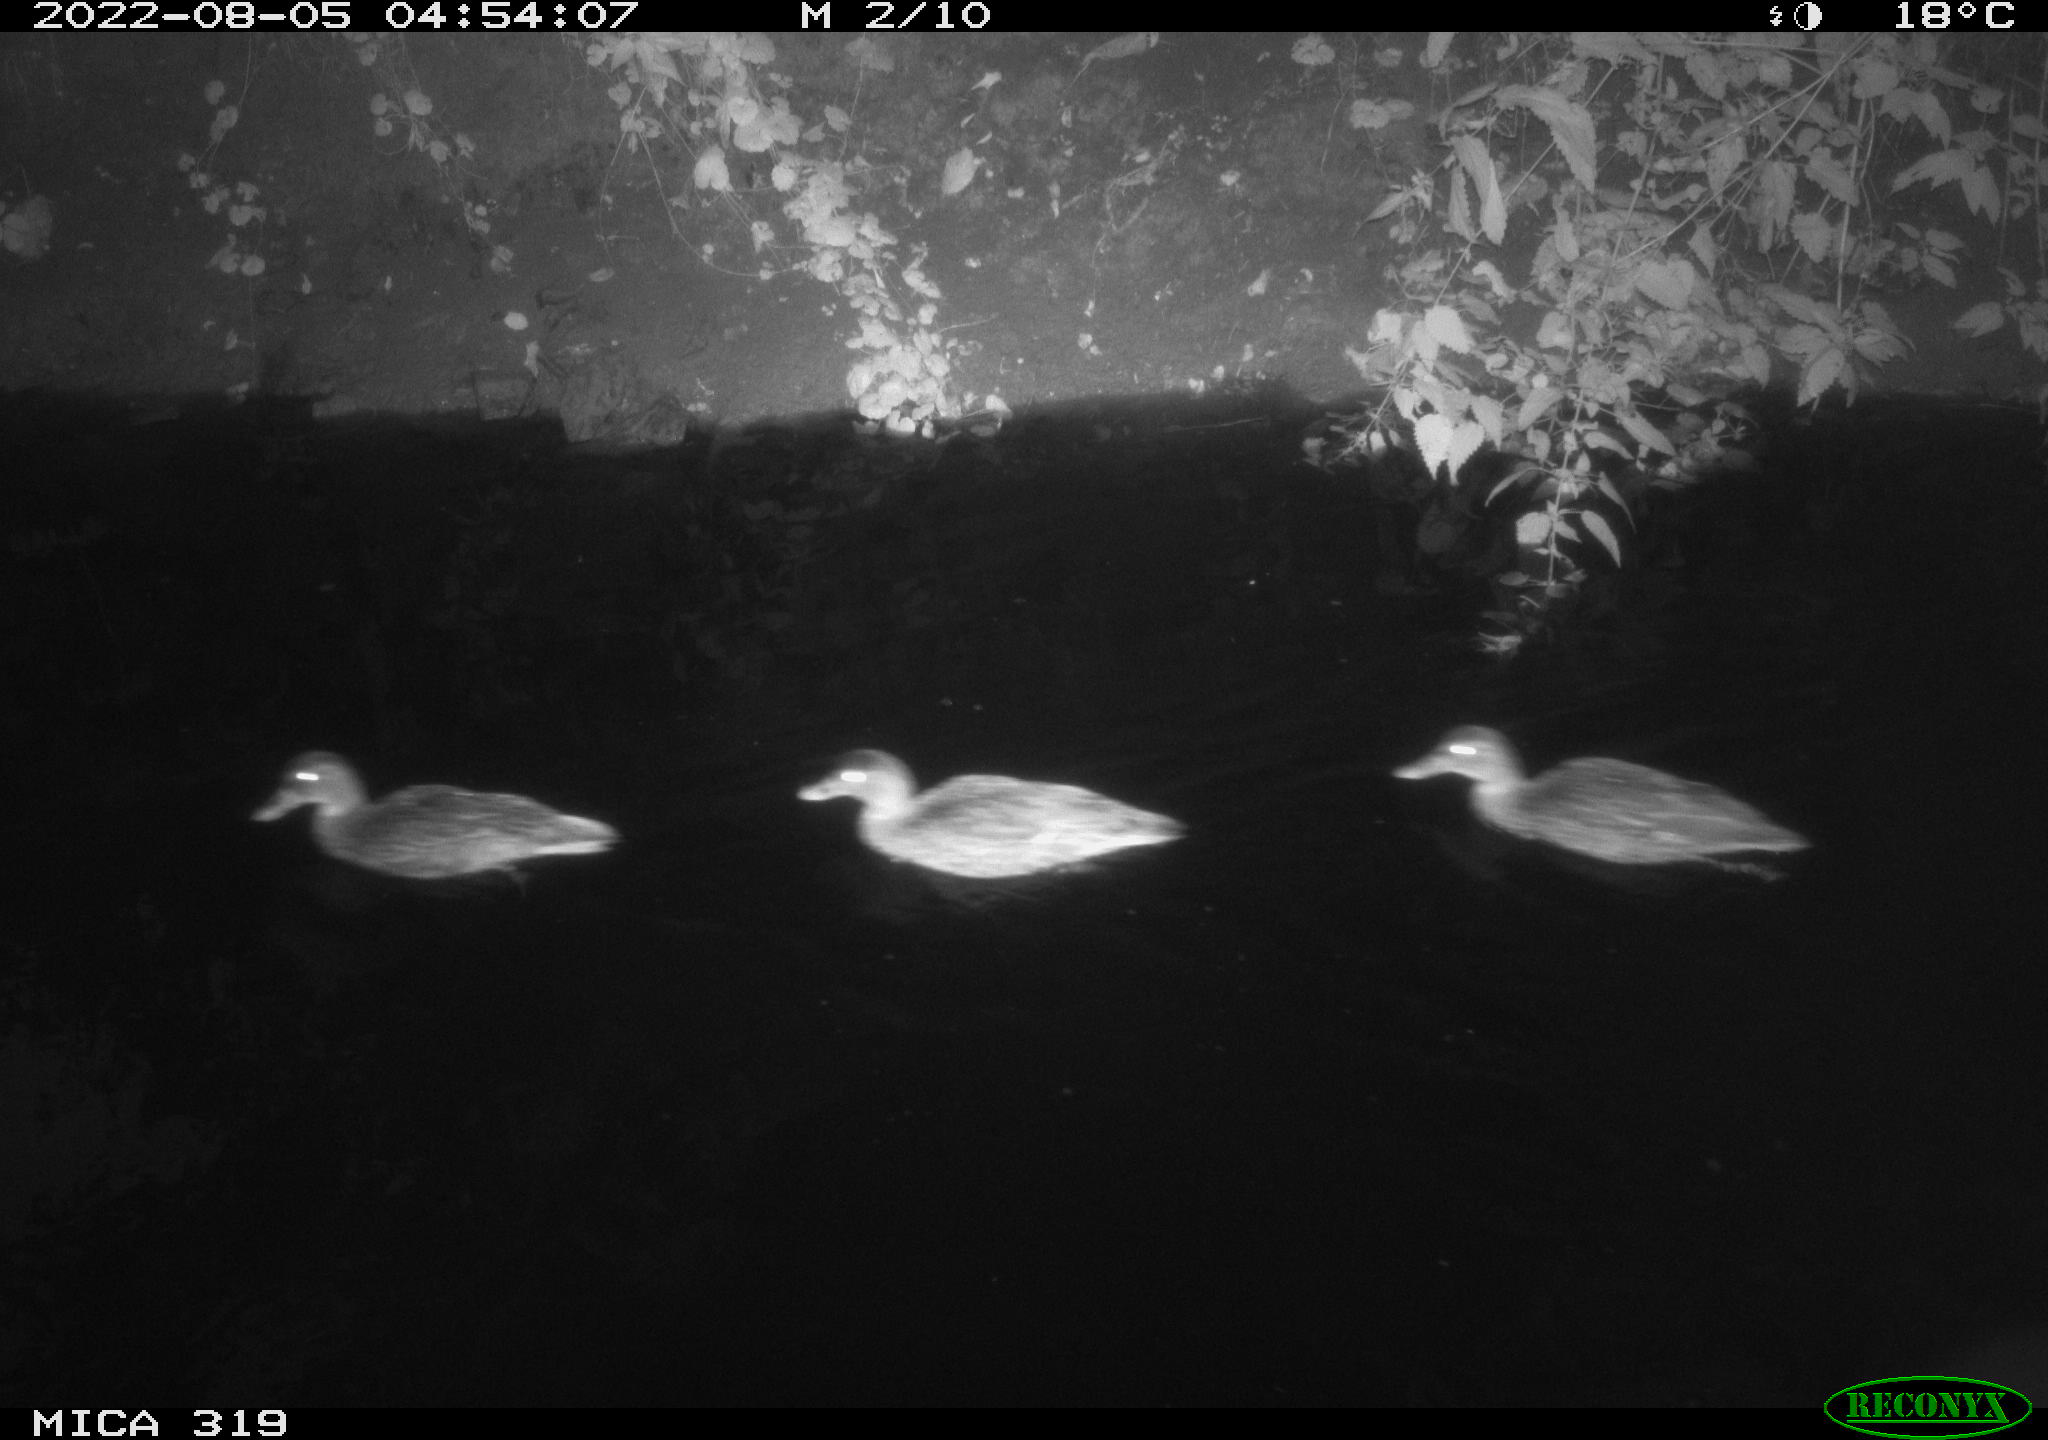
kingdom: Animalia
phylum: Chordata
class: Aves
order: Anseriformes
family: Anatidae
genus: Anas
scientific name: Anas
